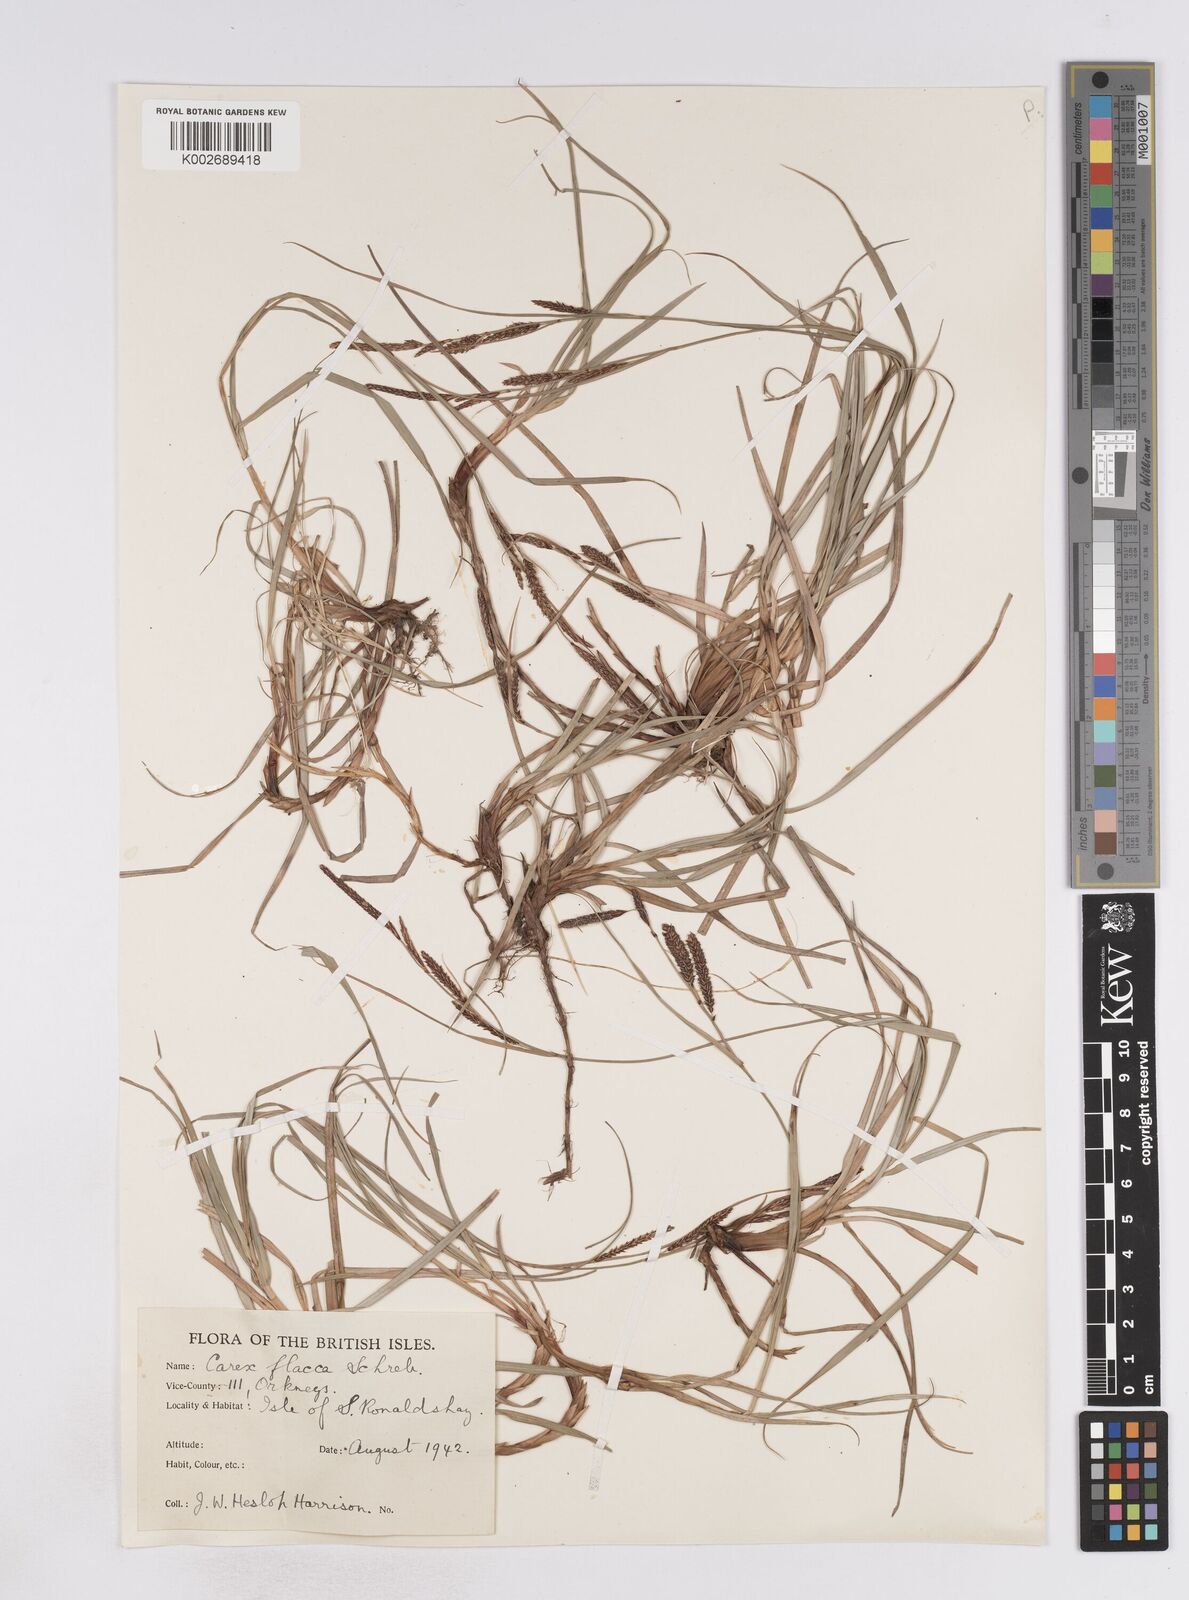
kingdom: Plantae
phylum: Tracheophyta
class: Liliopsida
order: Poales
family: Cyperaceae
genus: Carex
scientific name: Carex flacca
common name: Glaucous sedge
